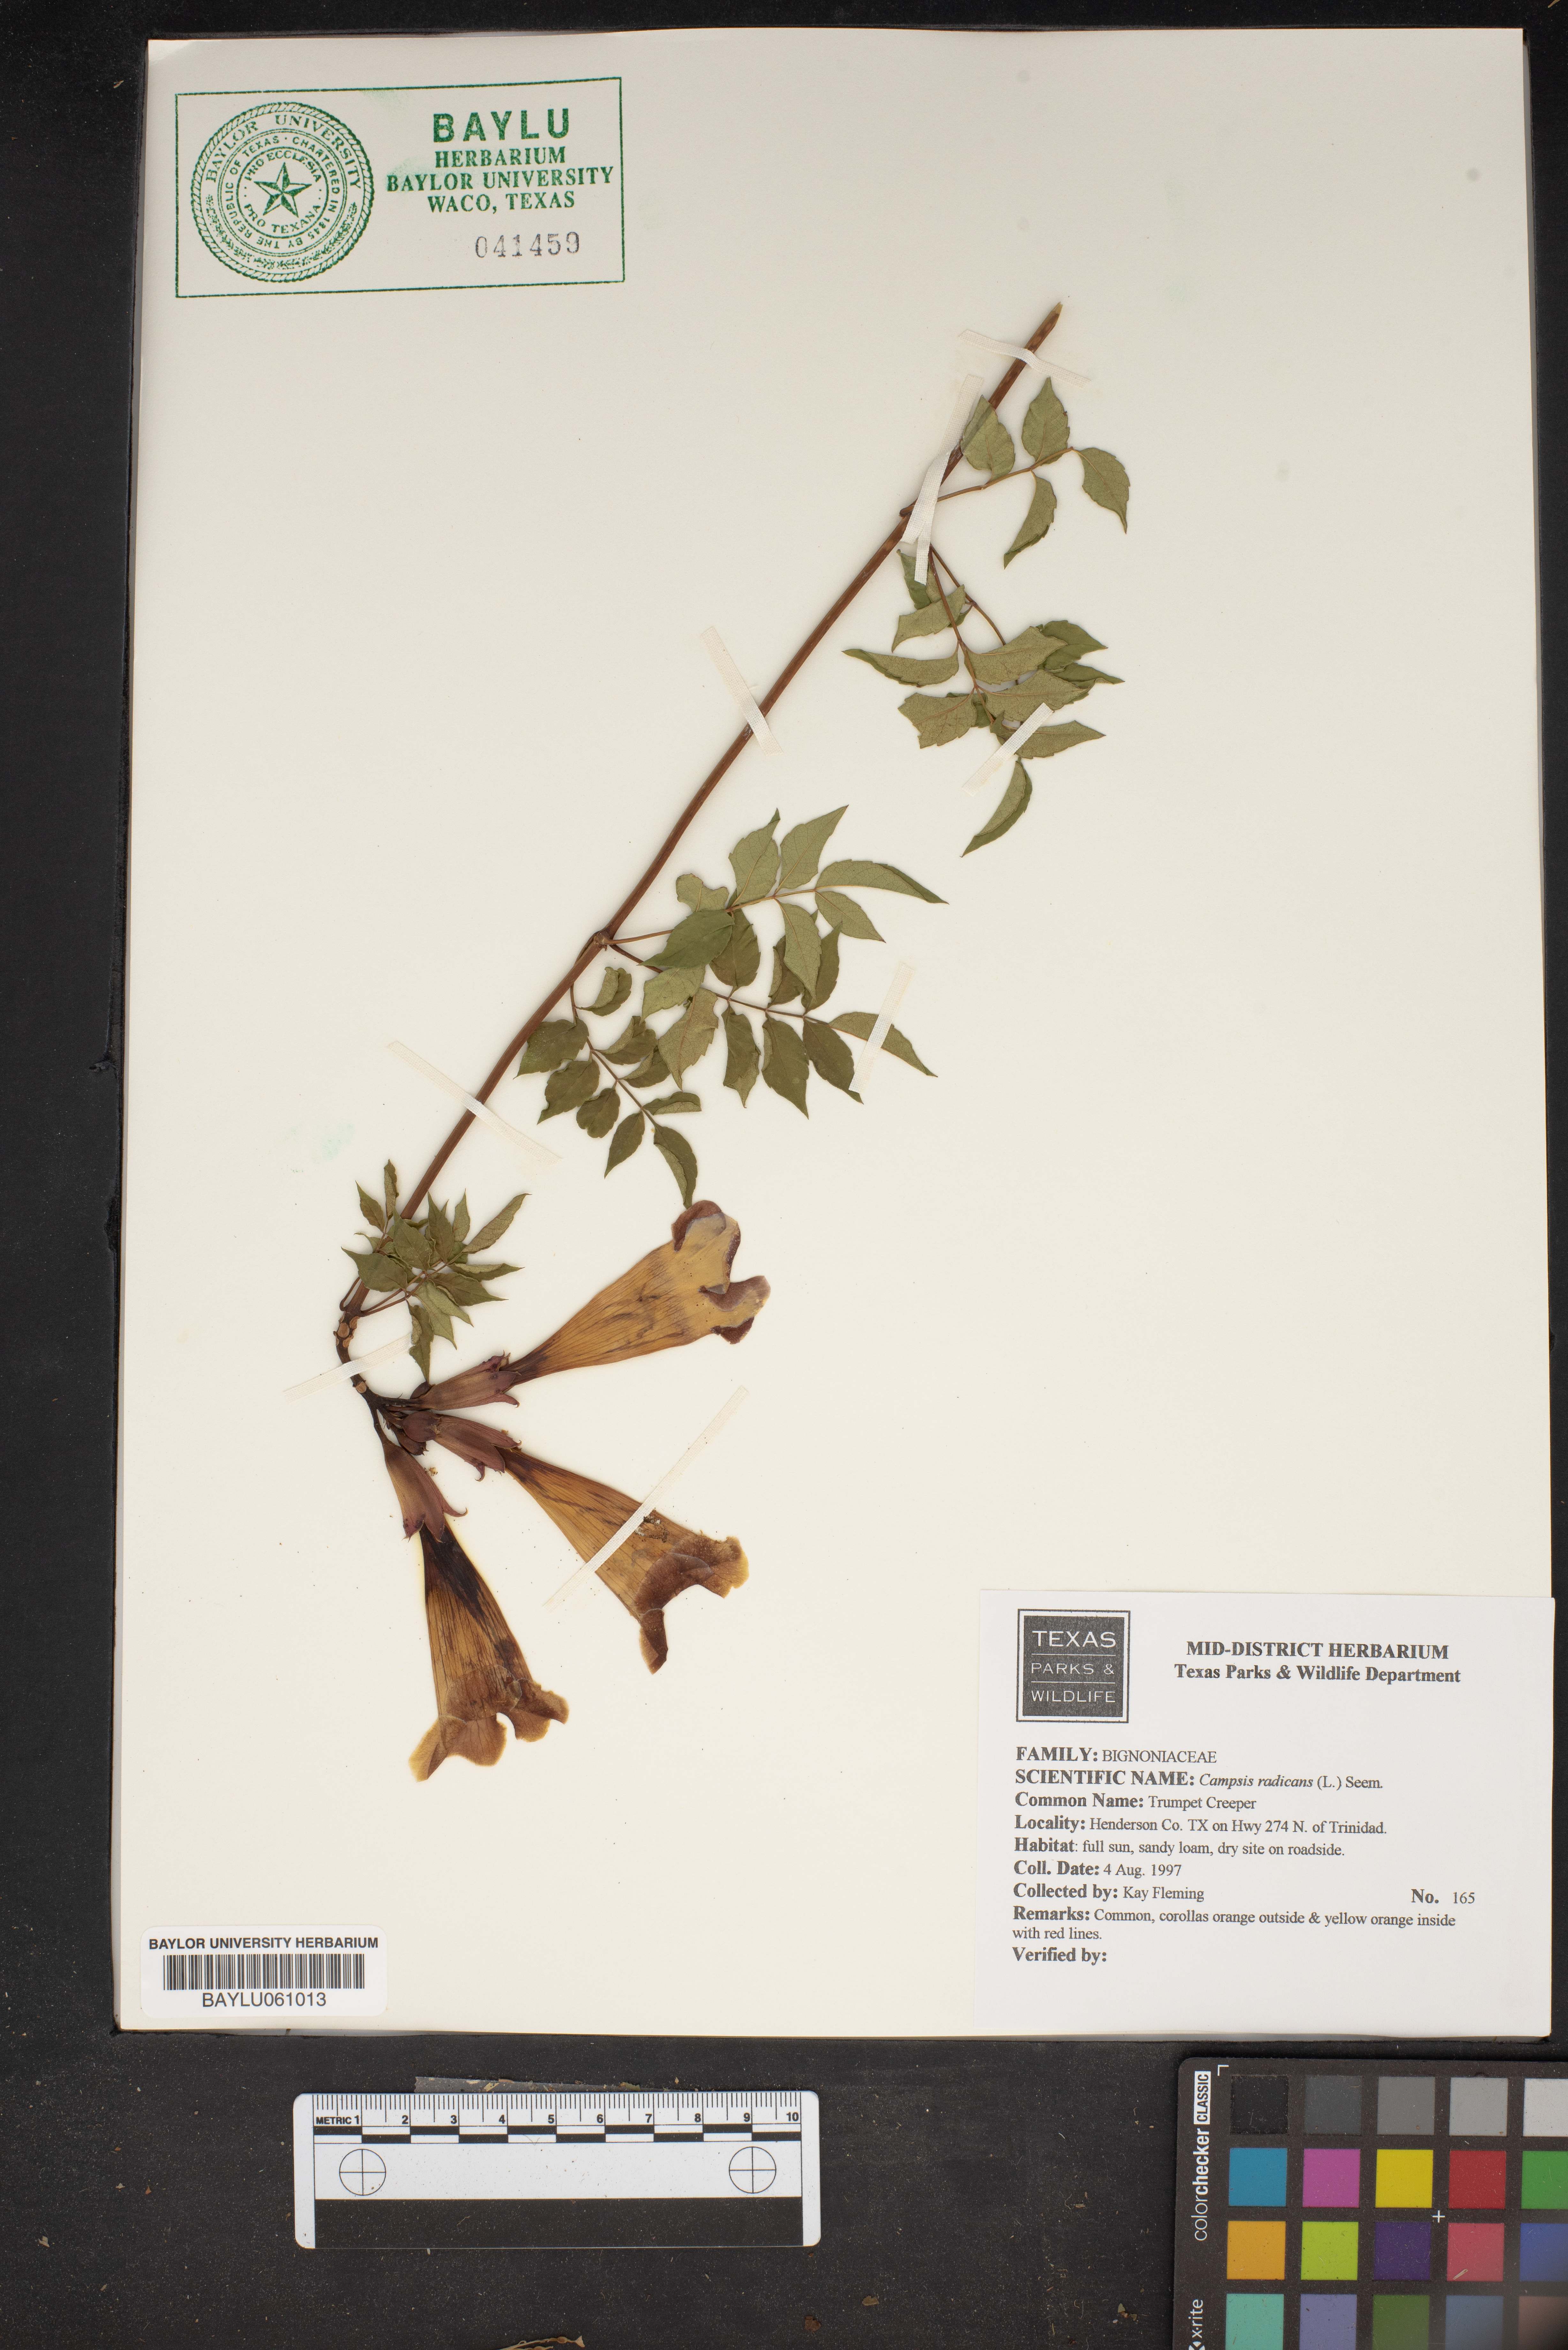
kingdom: Plantae
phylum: Tracheophyta
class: Magnoliopsida
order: Lamiales
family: Bignoniaceae
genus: Campsis
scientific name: Campsis radicans
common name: Trumpet-creeper
